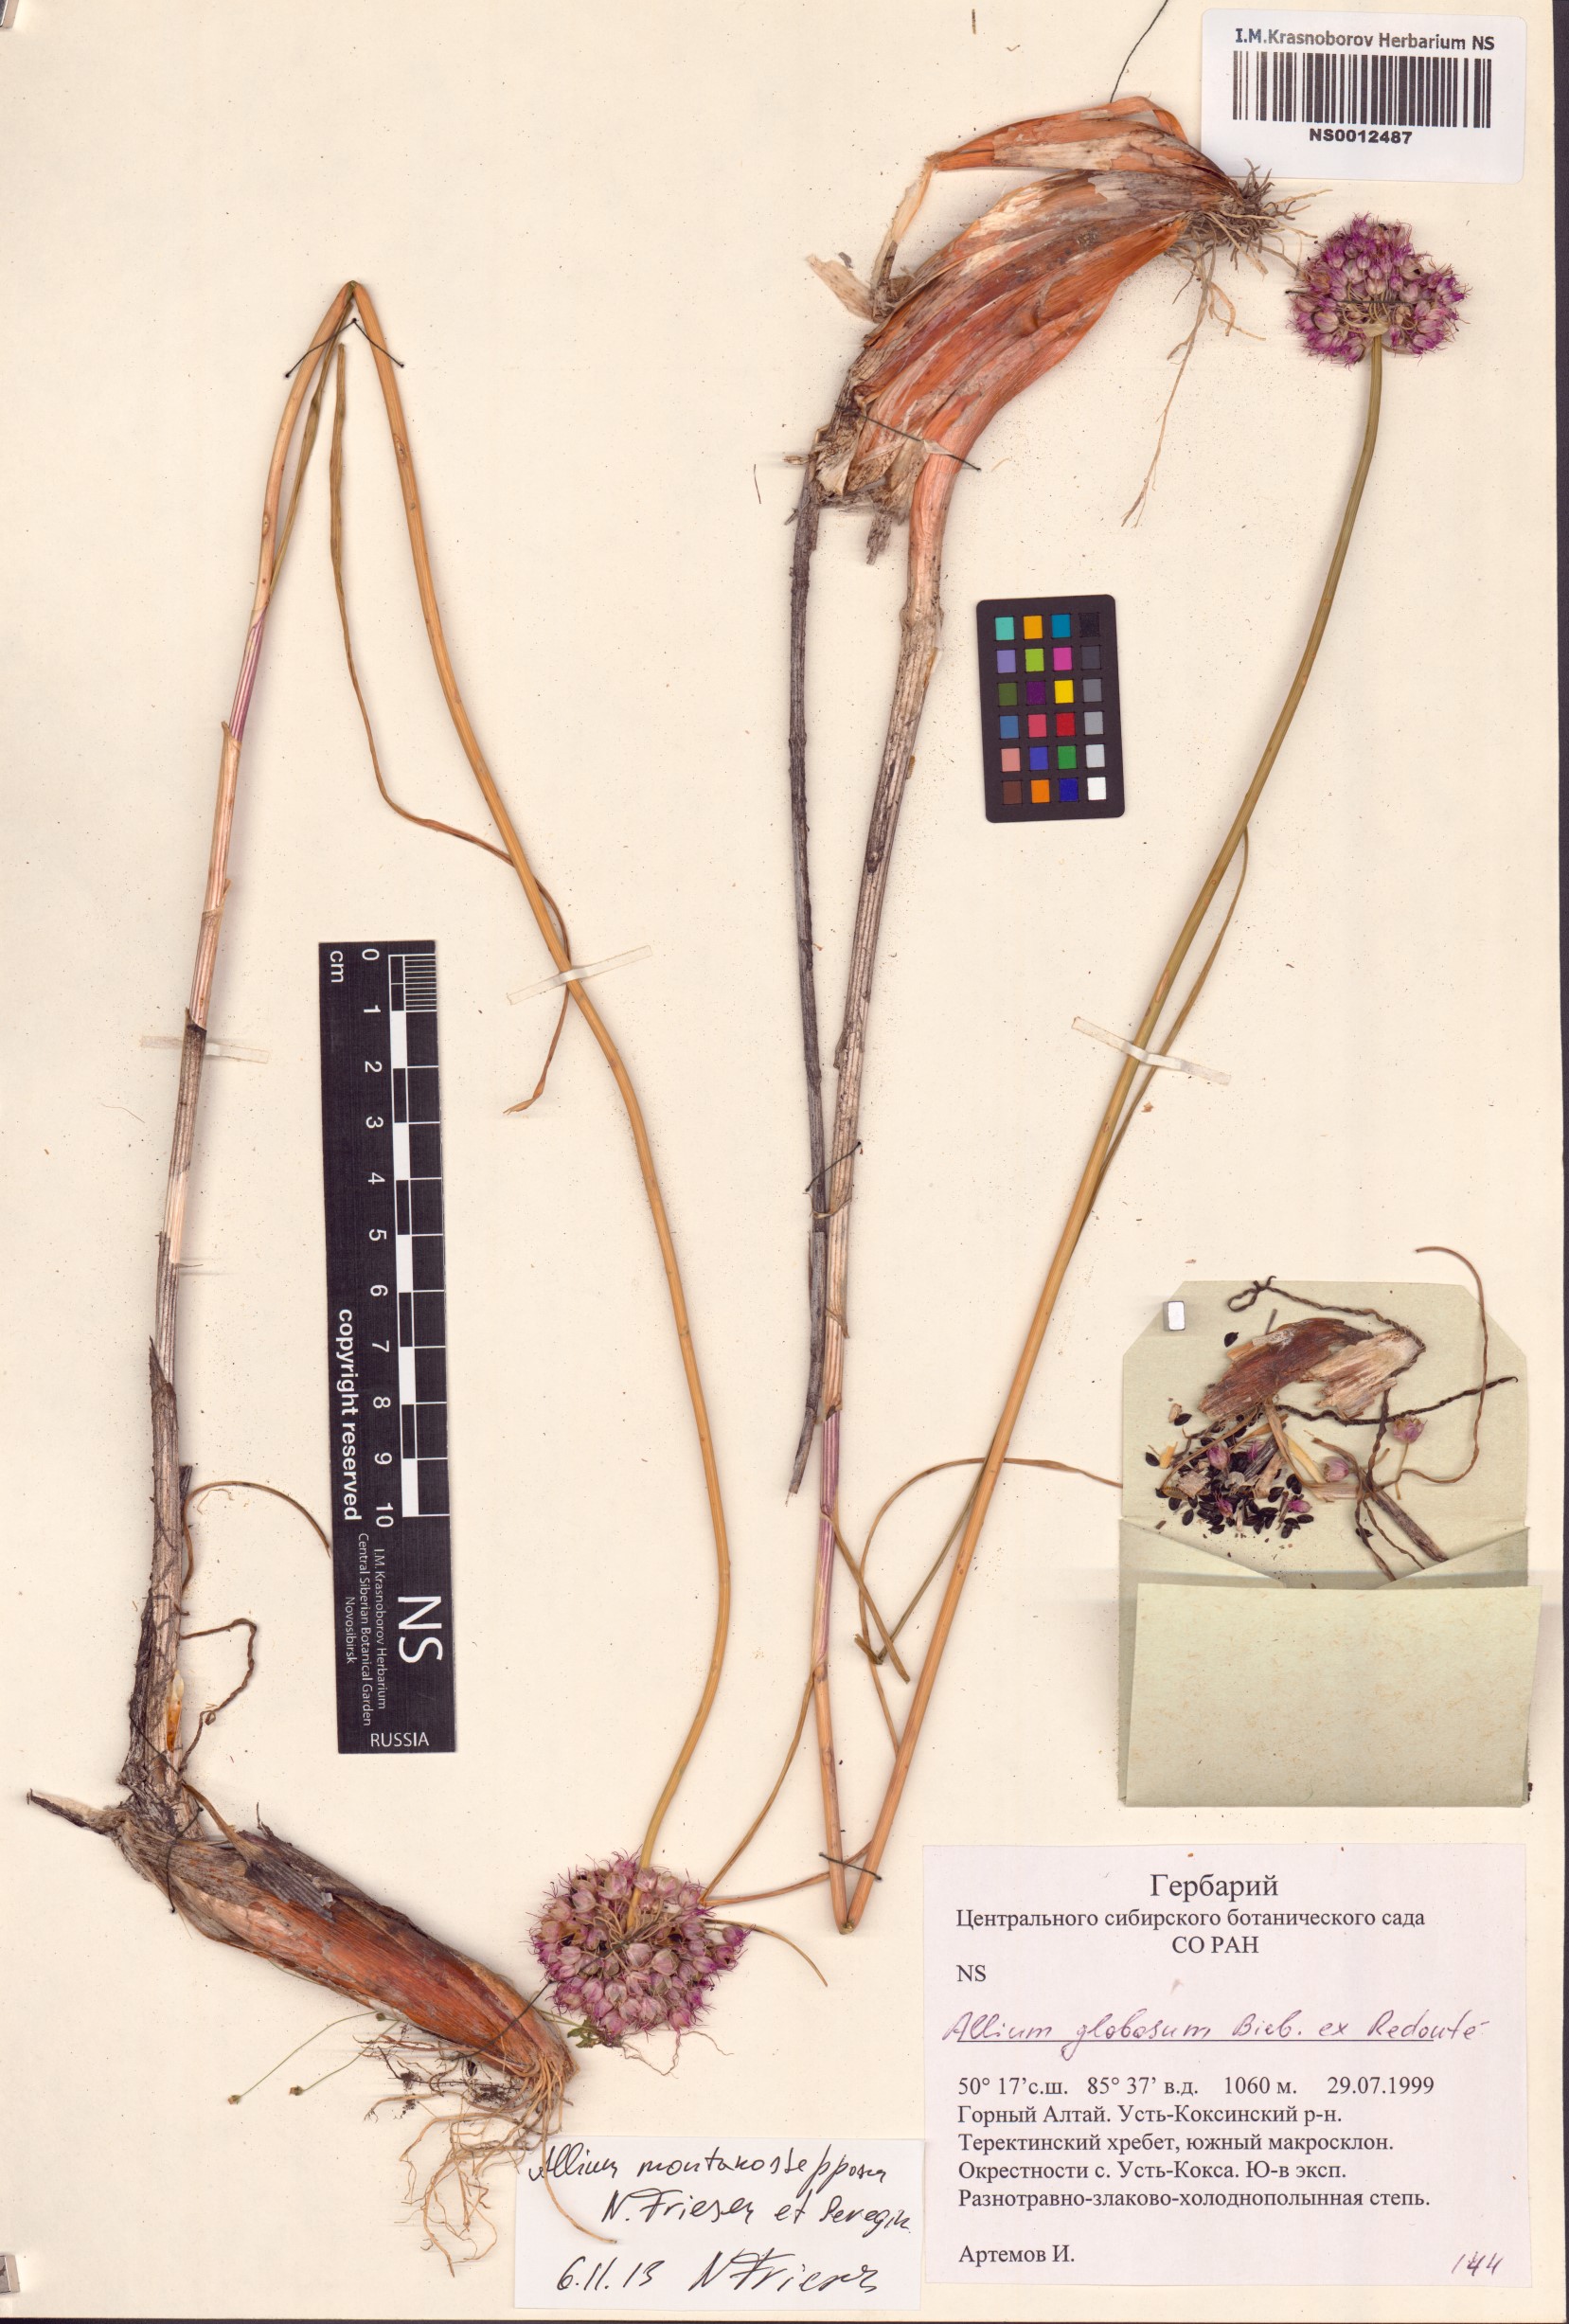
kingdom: Plantae
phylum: Tracheophyta
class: Liliopsida
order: Asparagales
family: Amaryllidaceae
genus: Allium
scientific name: Allium montanostepposum
